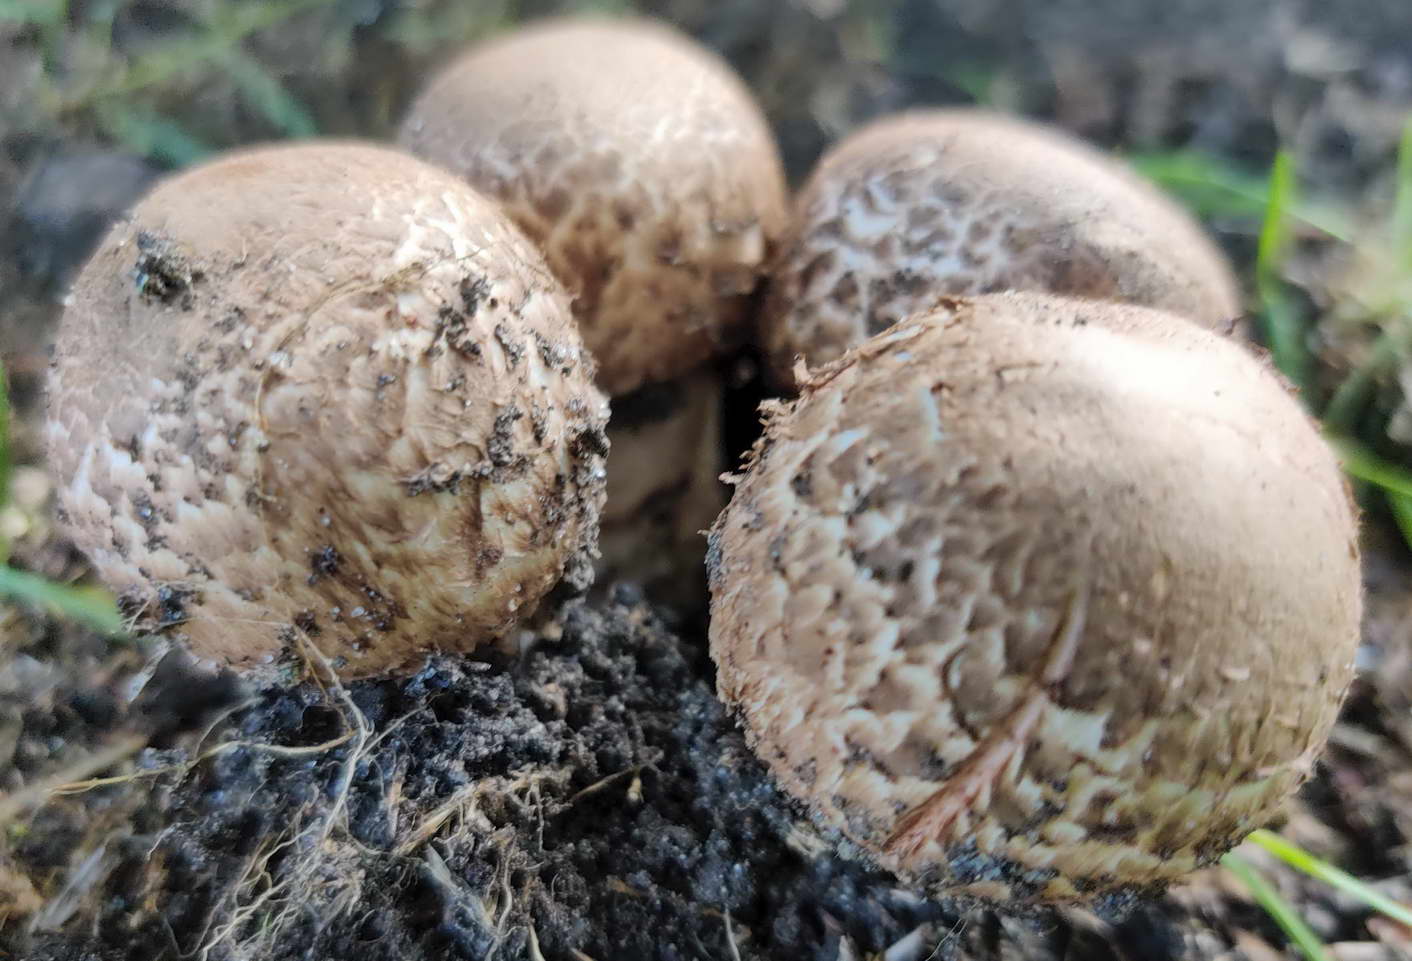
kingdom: Fungi
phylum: Basidiomycota
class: Agaricomycetes
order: Agaricales
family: Agaricaceae
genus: Agaricus
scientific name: Agaricus bohusii
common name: krumskællet champignon
